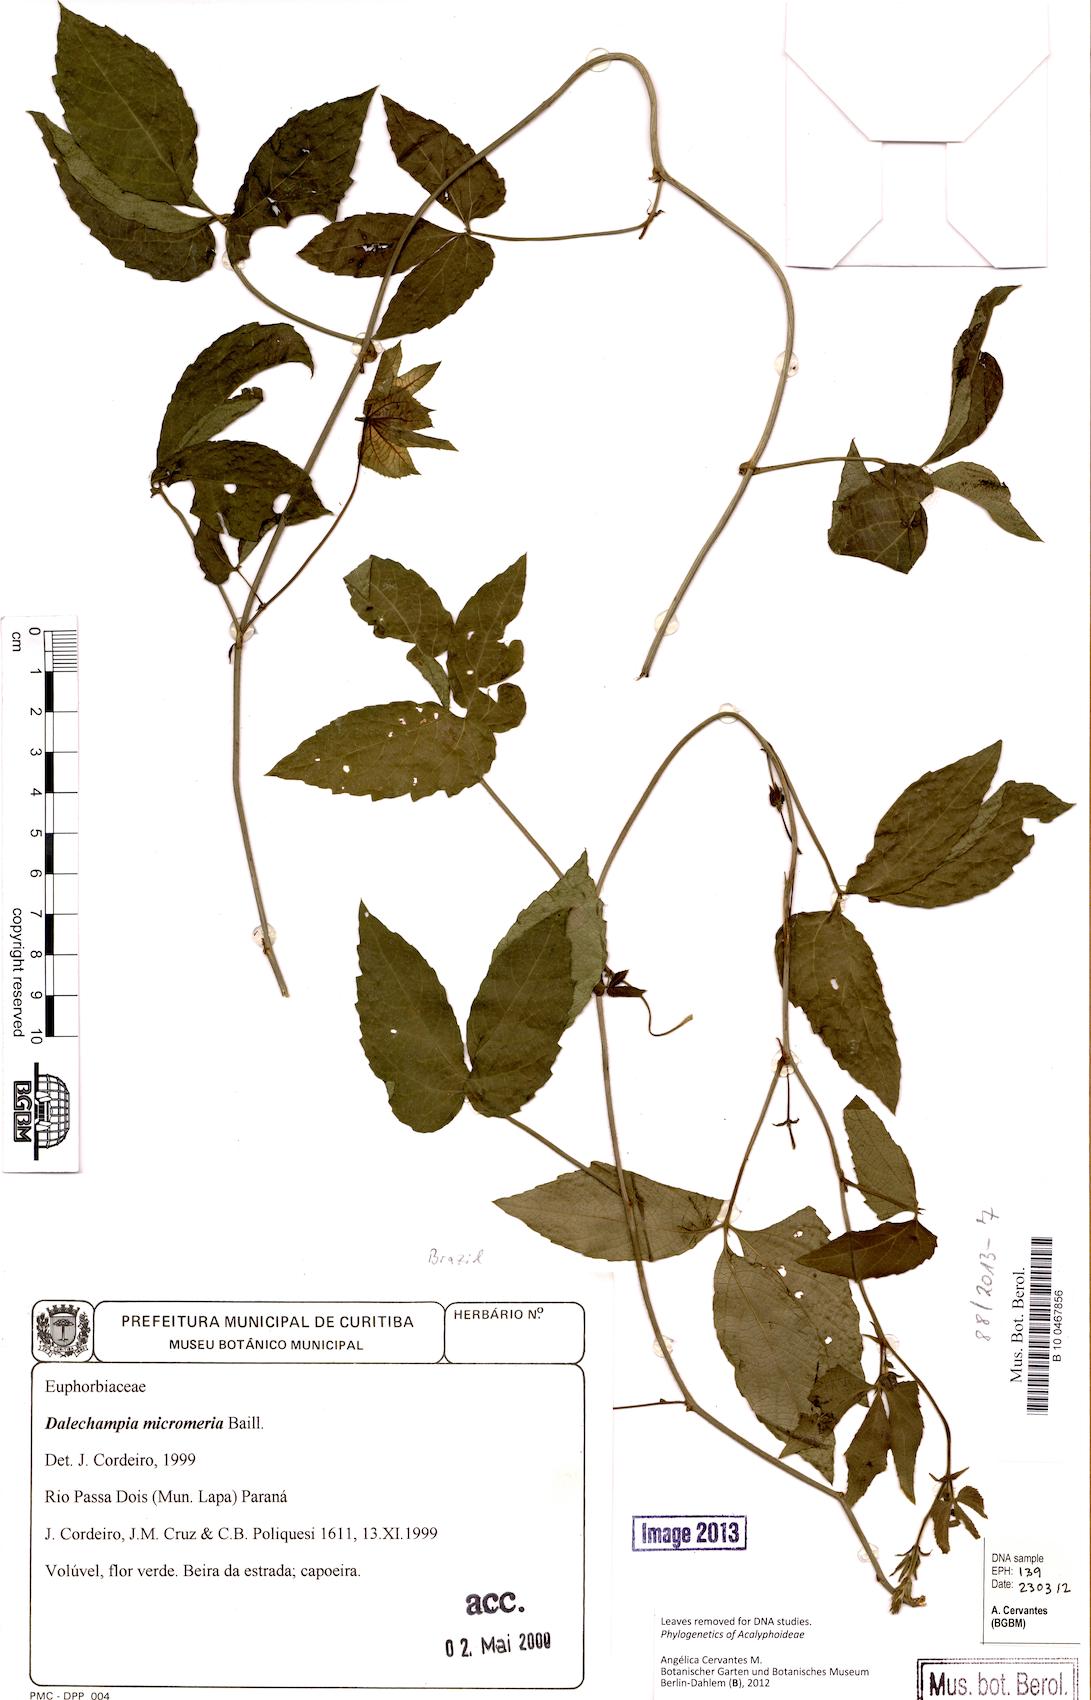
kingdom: Plantae
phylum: Tracheophyta
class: Magnoliopsida
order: Malpighiales
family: Euphorbiaceae
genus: Dalechampia
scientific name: Dalechampia micromeria
